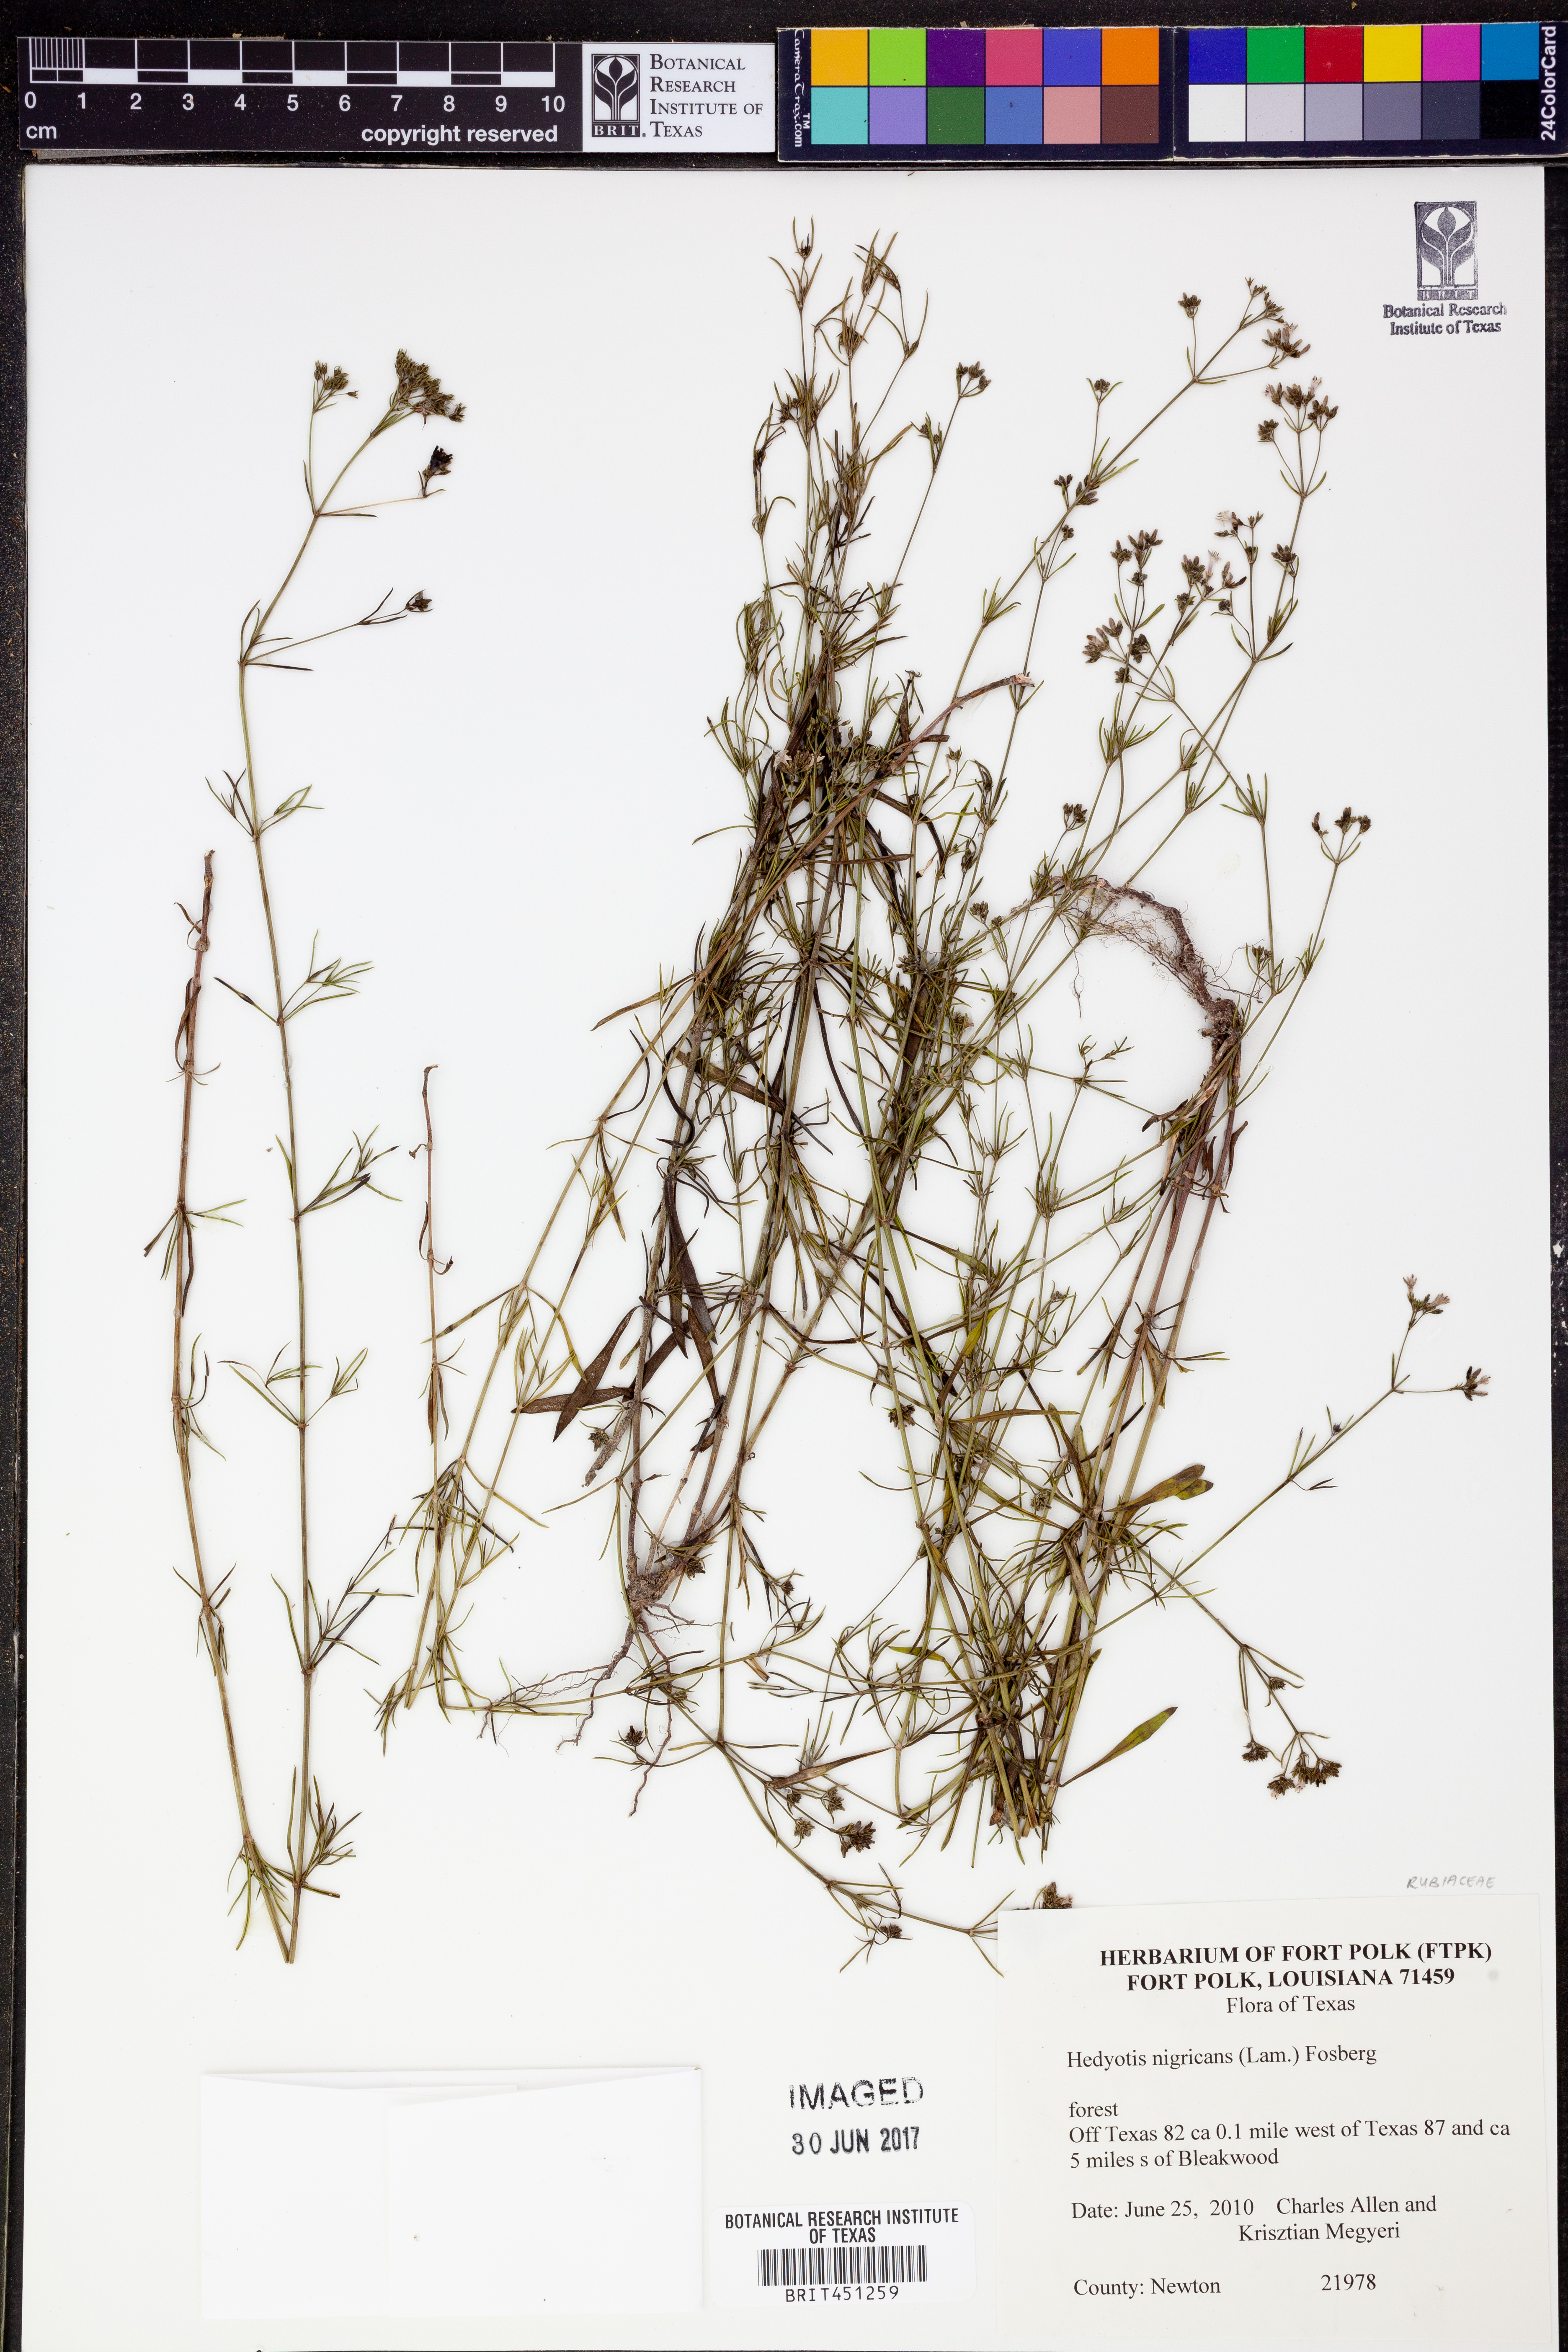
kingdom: Plantae
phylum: Tracheophyta
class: Magnoliopsida
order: Gentianales
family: Rubiaceae
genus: Stenaria
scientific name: Stenaria nigricans
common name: Diamondflowers
